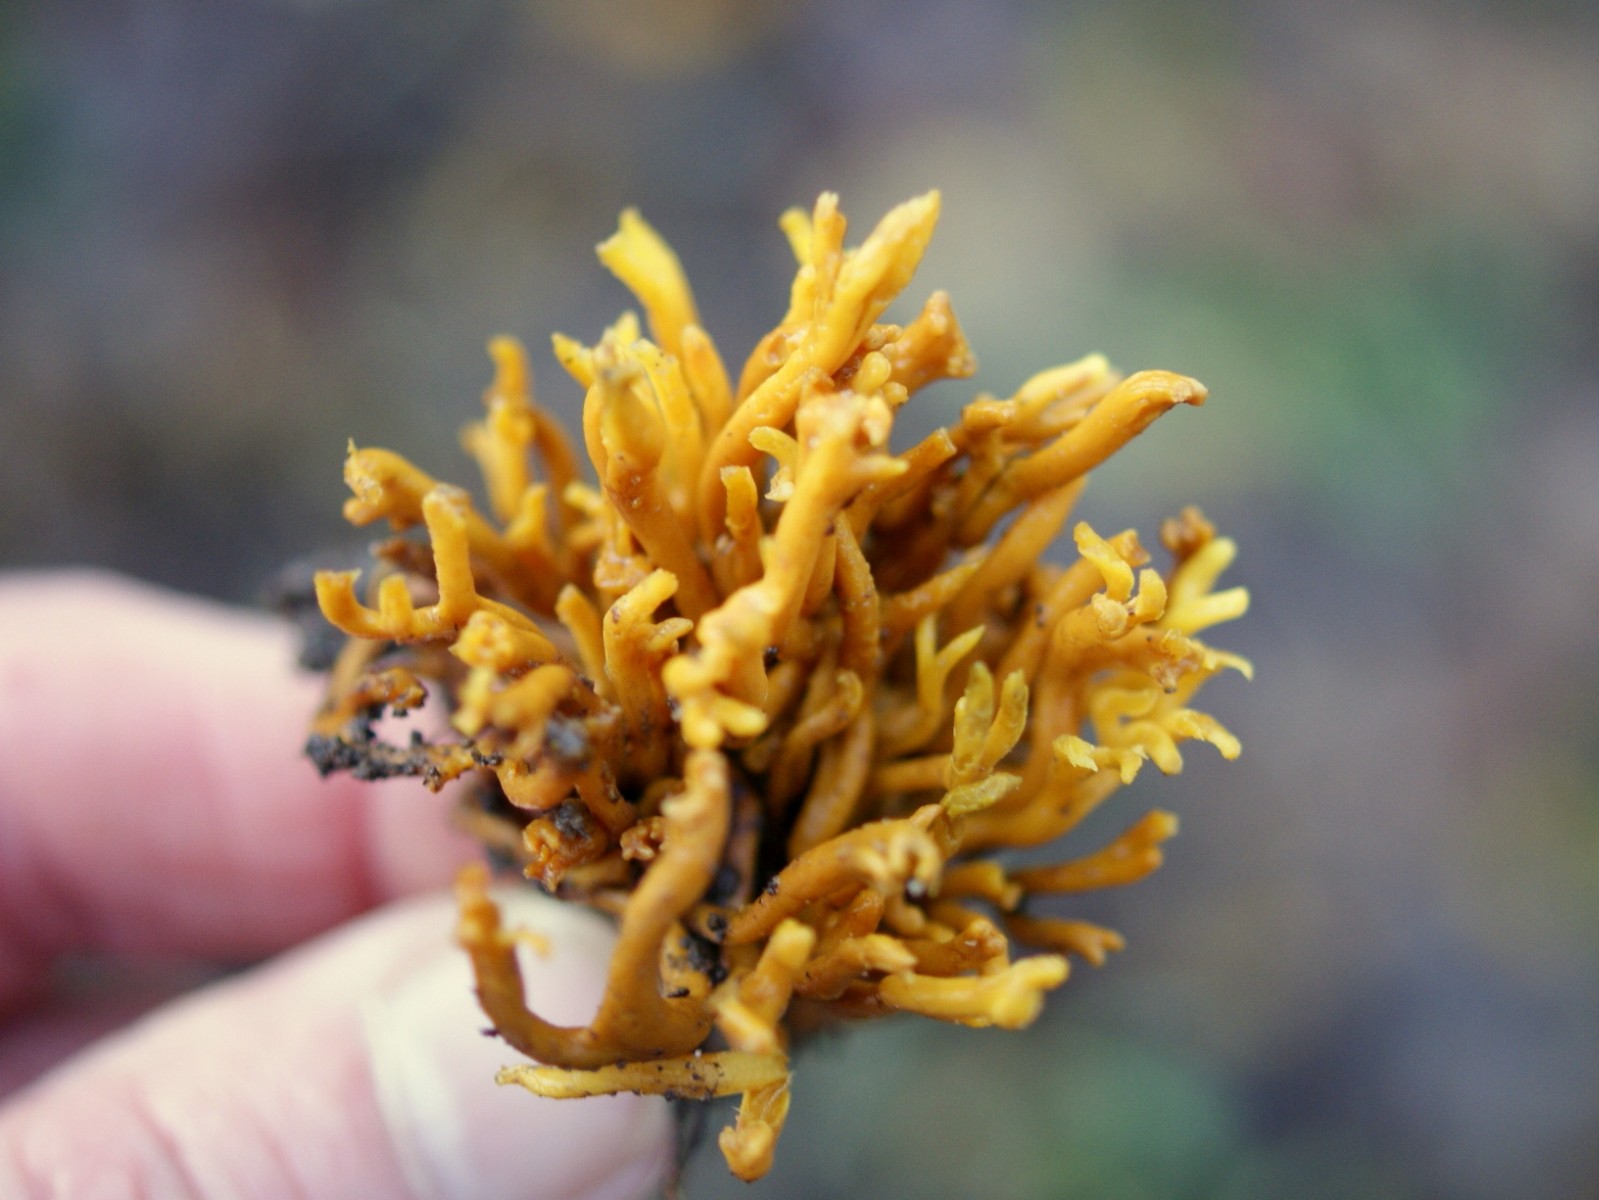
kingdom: Fungi
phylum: Basidiomycota
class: Agaricomycetes
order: Agaricales
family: Clavariaceae
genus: Clavulinopsis
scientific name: Clavulinopsis corniculata
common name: eng-køllesvamp
